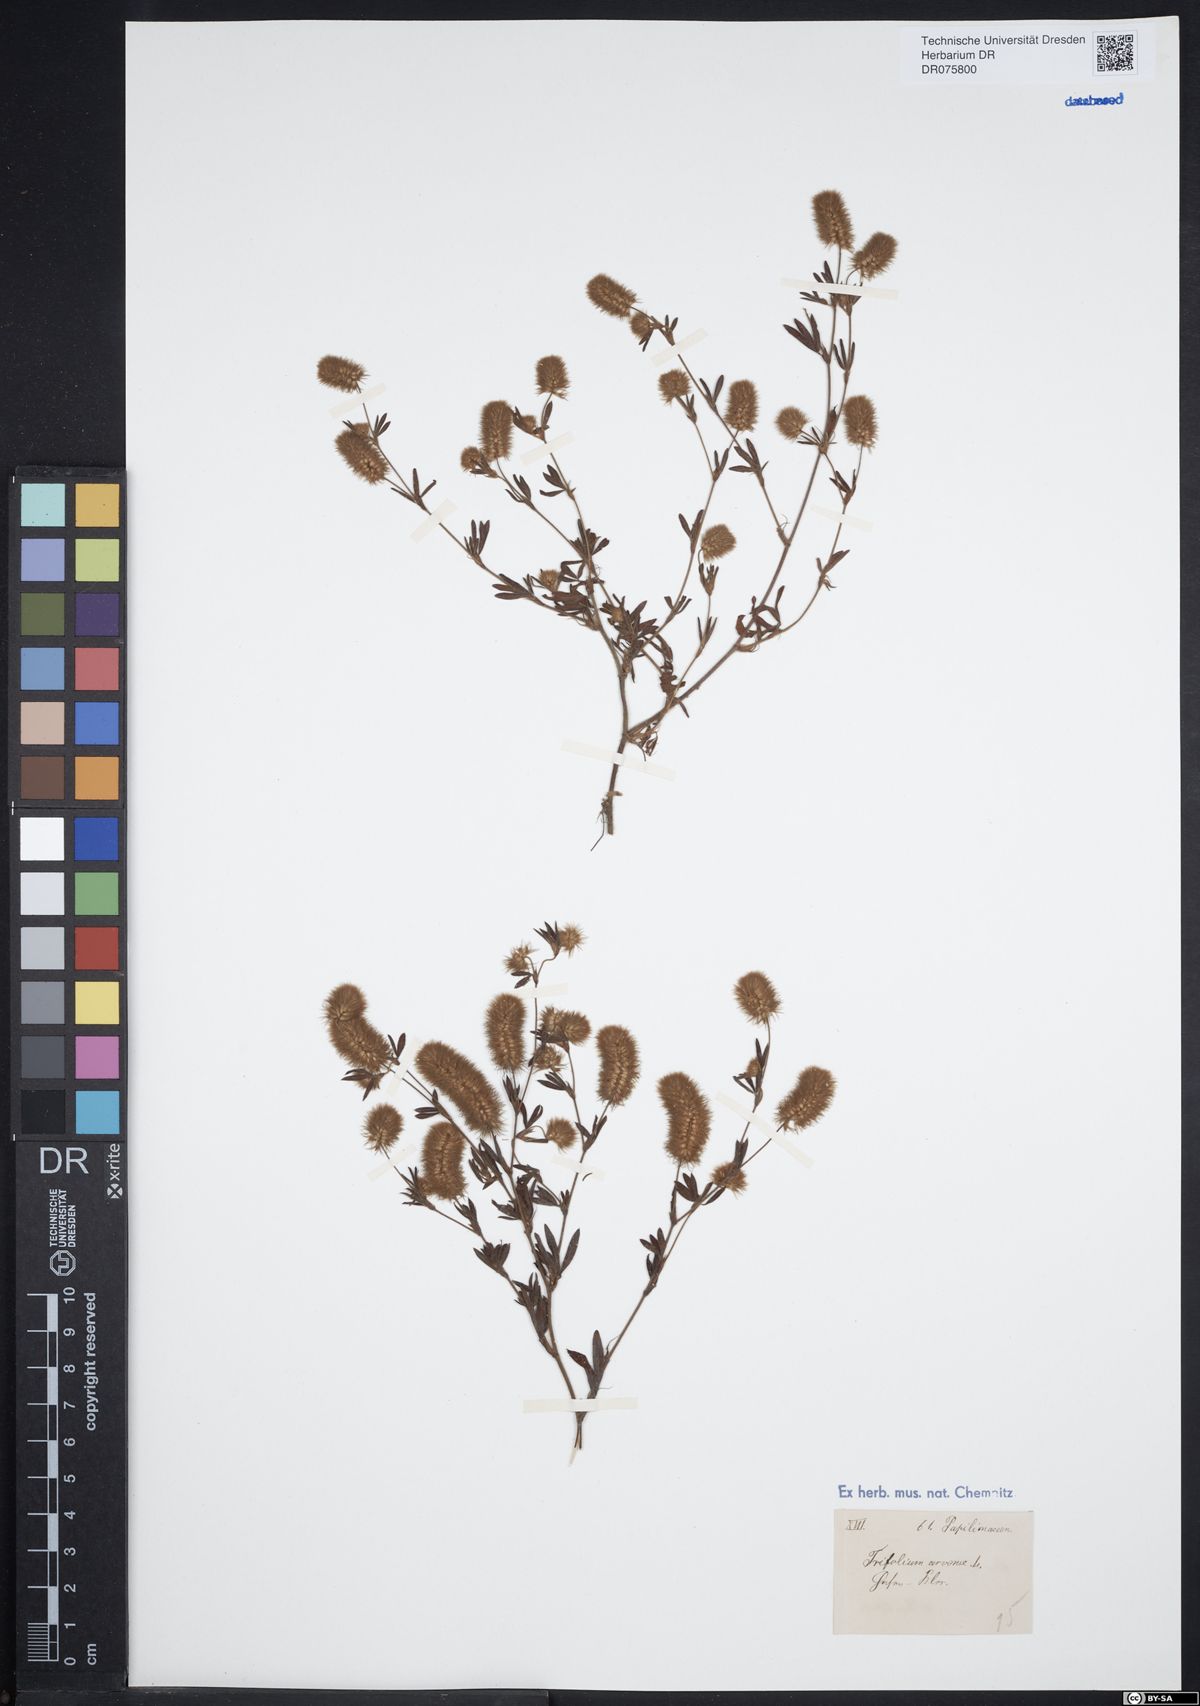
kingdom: Plantae
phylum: Tracheophyta
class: Magnoliopsida
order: Fabales
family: Fabaceae
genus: Trifolium
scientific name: Trifolium arvense
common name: Hare's-foot clover
